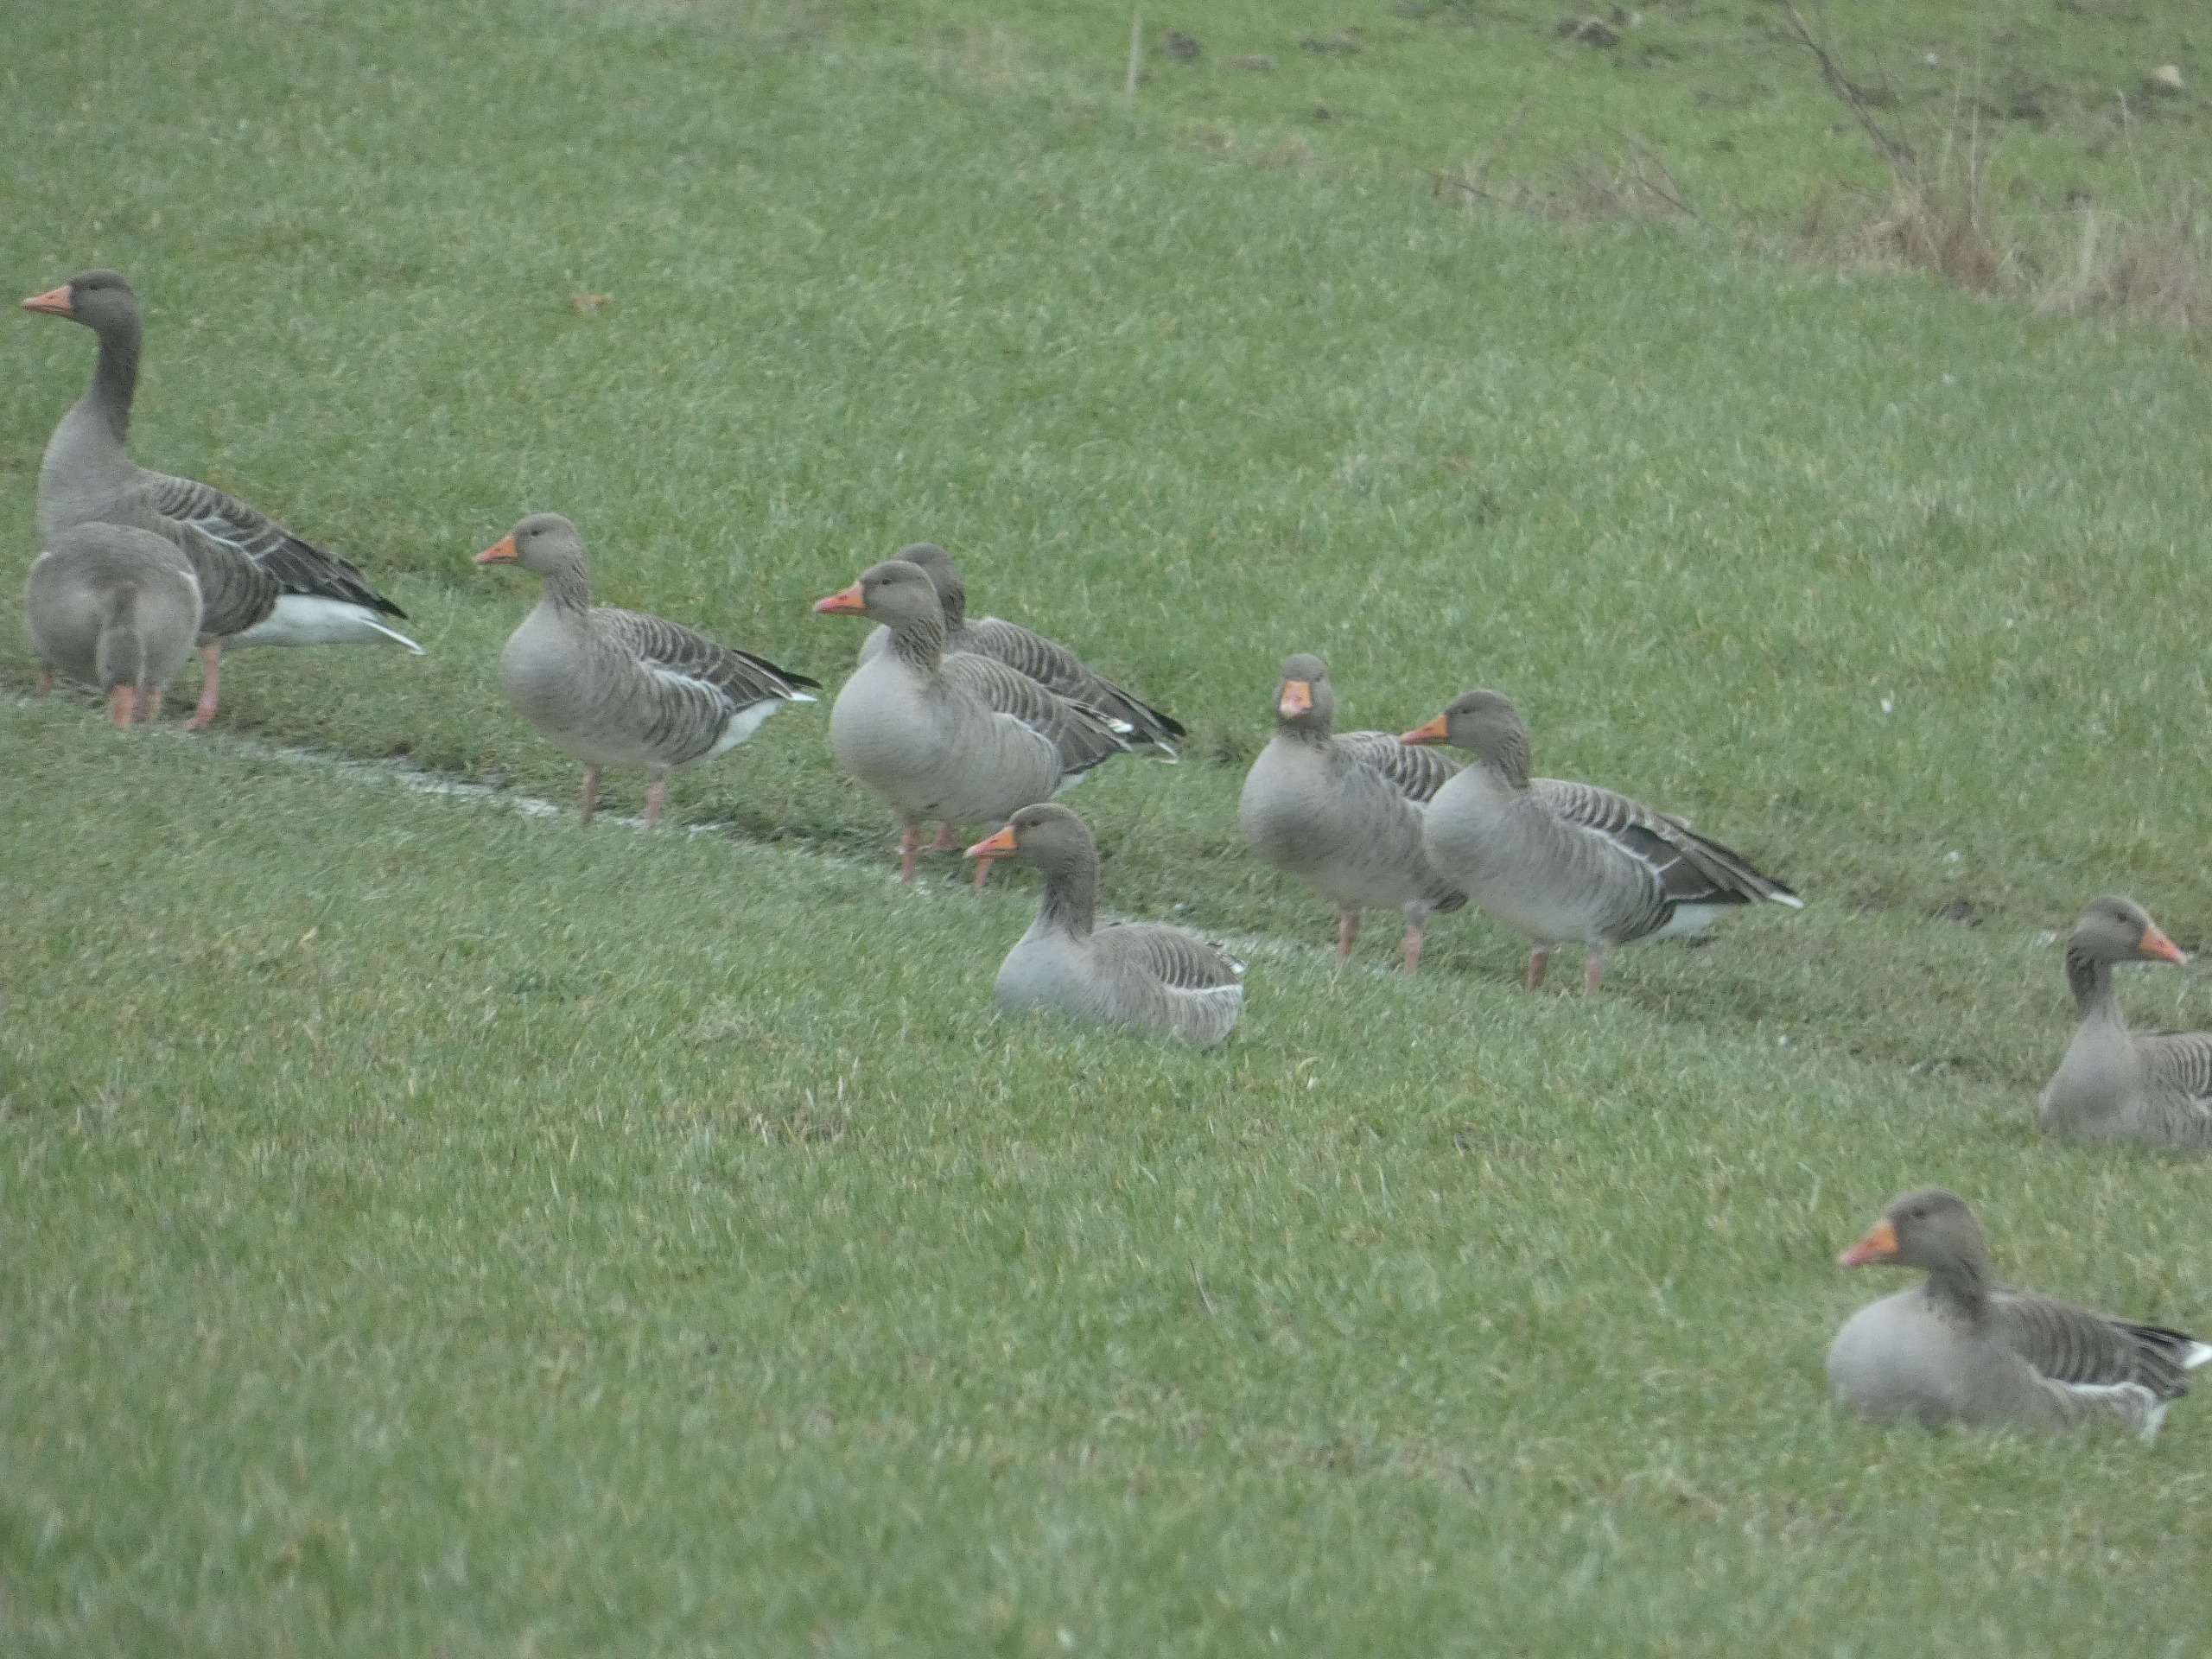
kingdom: Animalia
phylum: Chordata
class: Aves
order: Anseriformes
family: Anatidae
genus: Anser
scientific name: Anser anser
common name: Grågås
